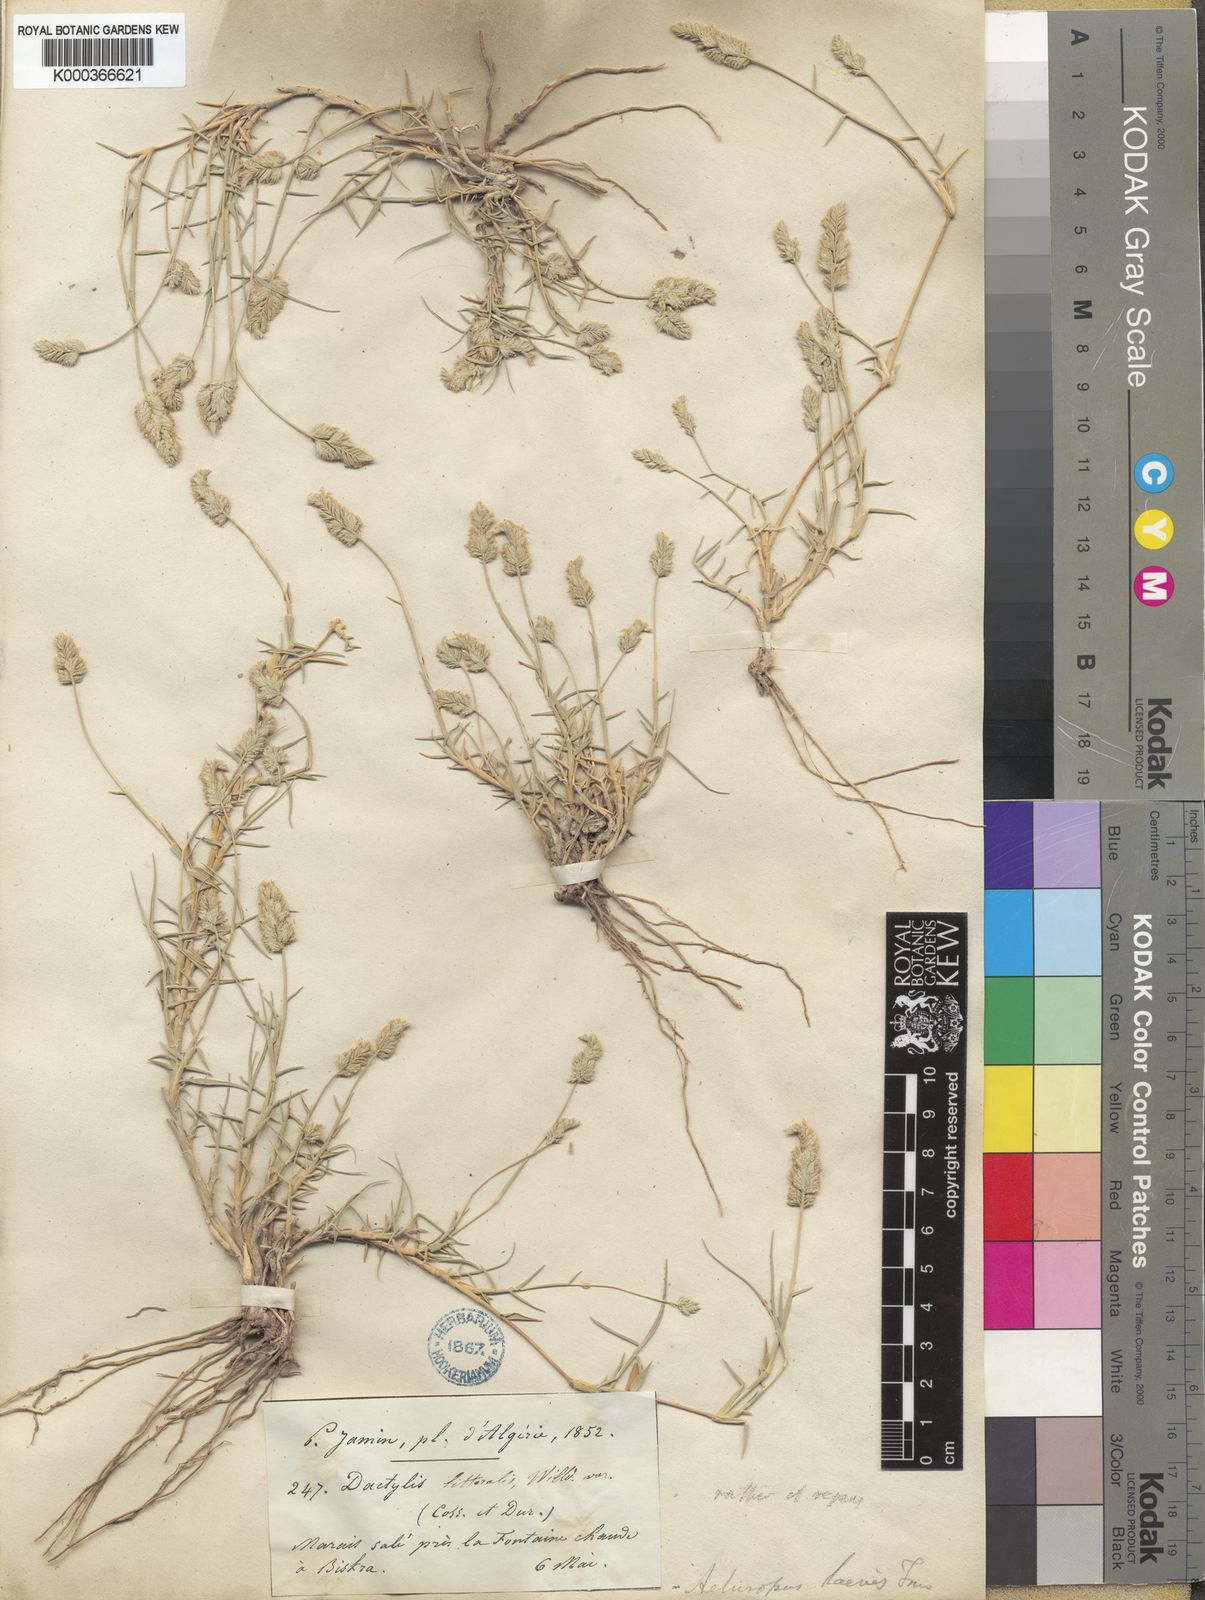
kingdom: Plantae
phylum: Tracheophyta
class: Liliopsida
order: Poales
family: Poaceae
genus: Aeluropus
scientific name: Aeluropus littoralis
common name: Indian walnut
